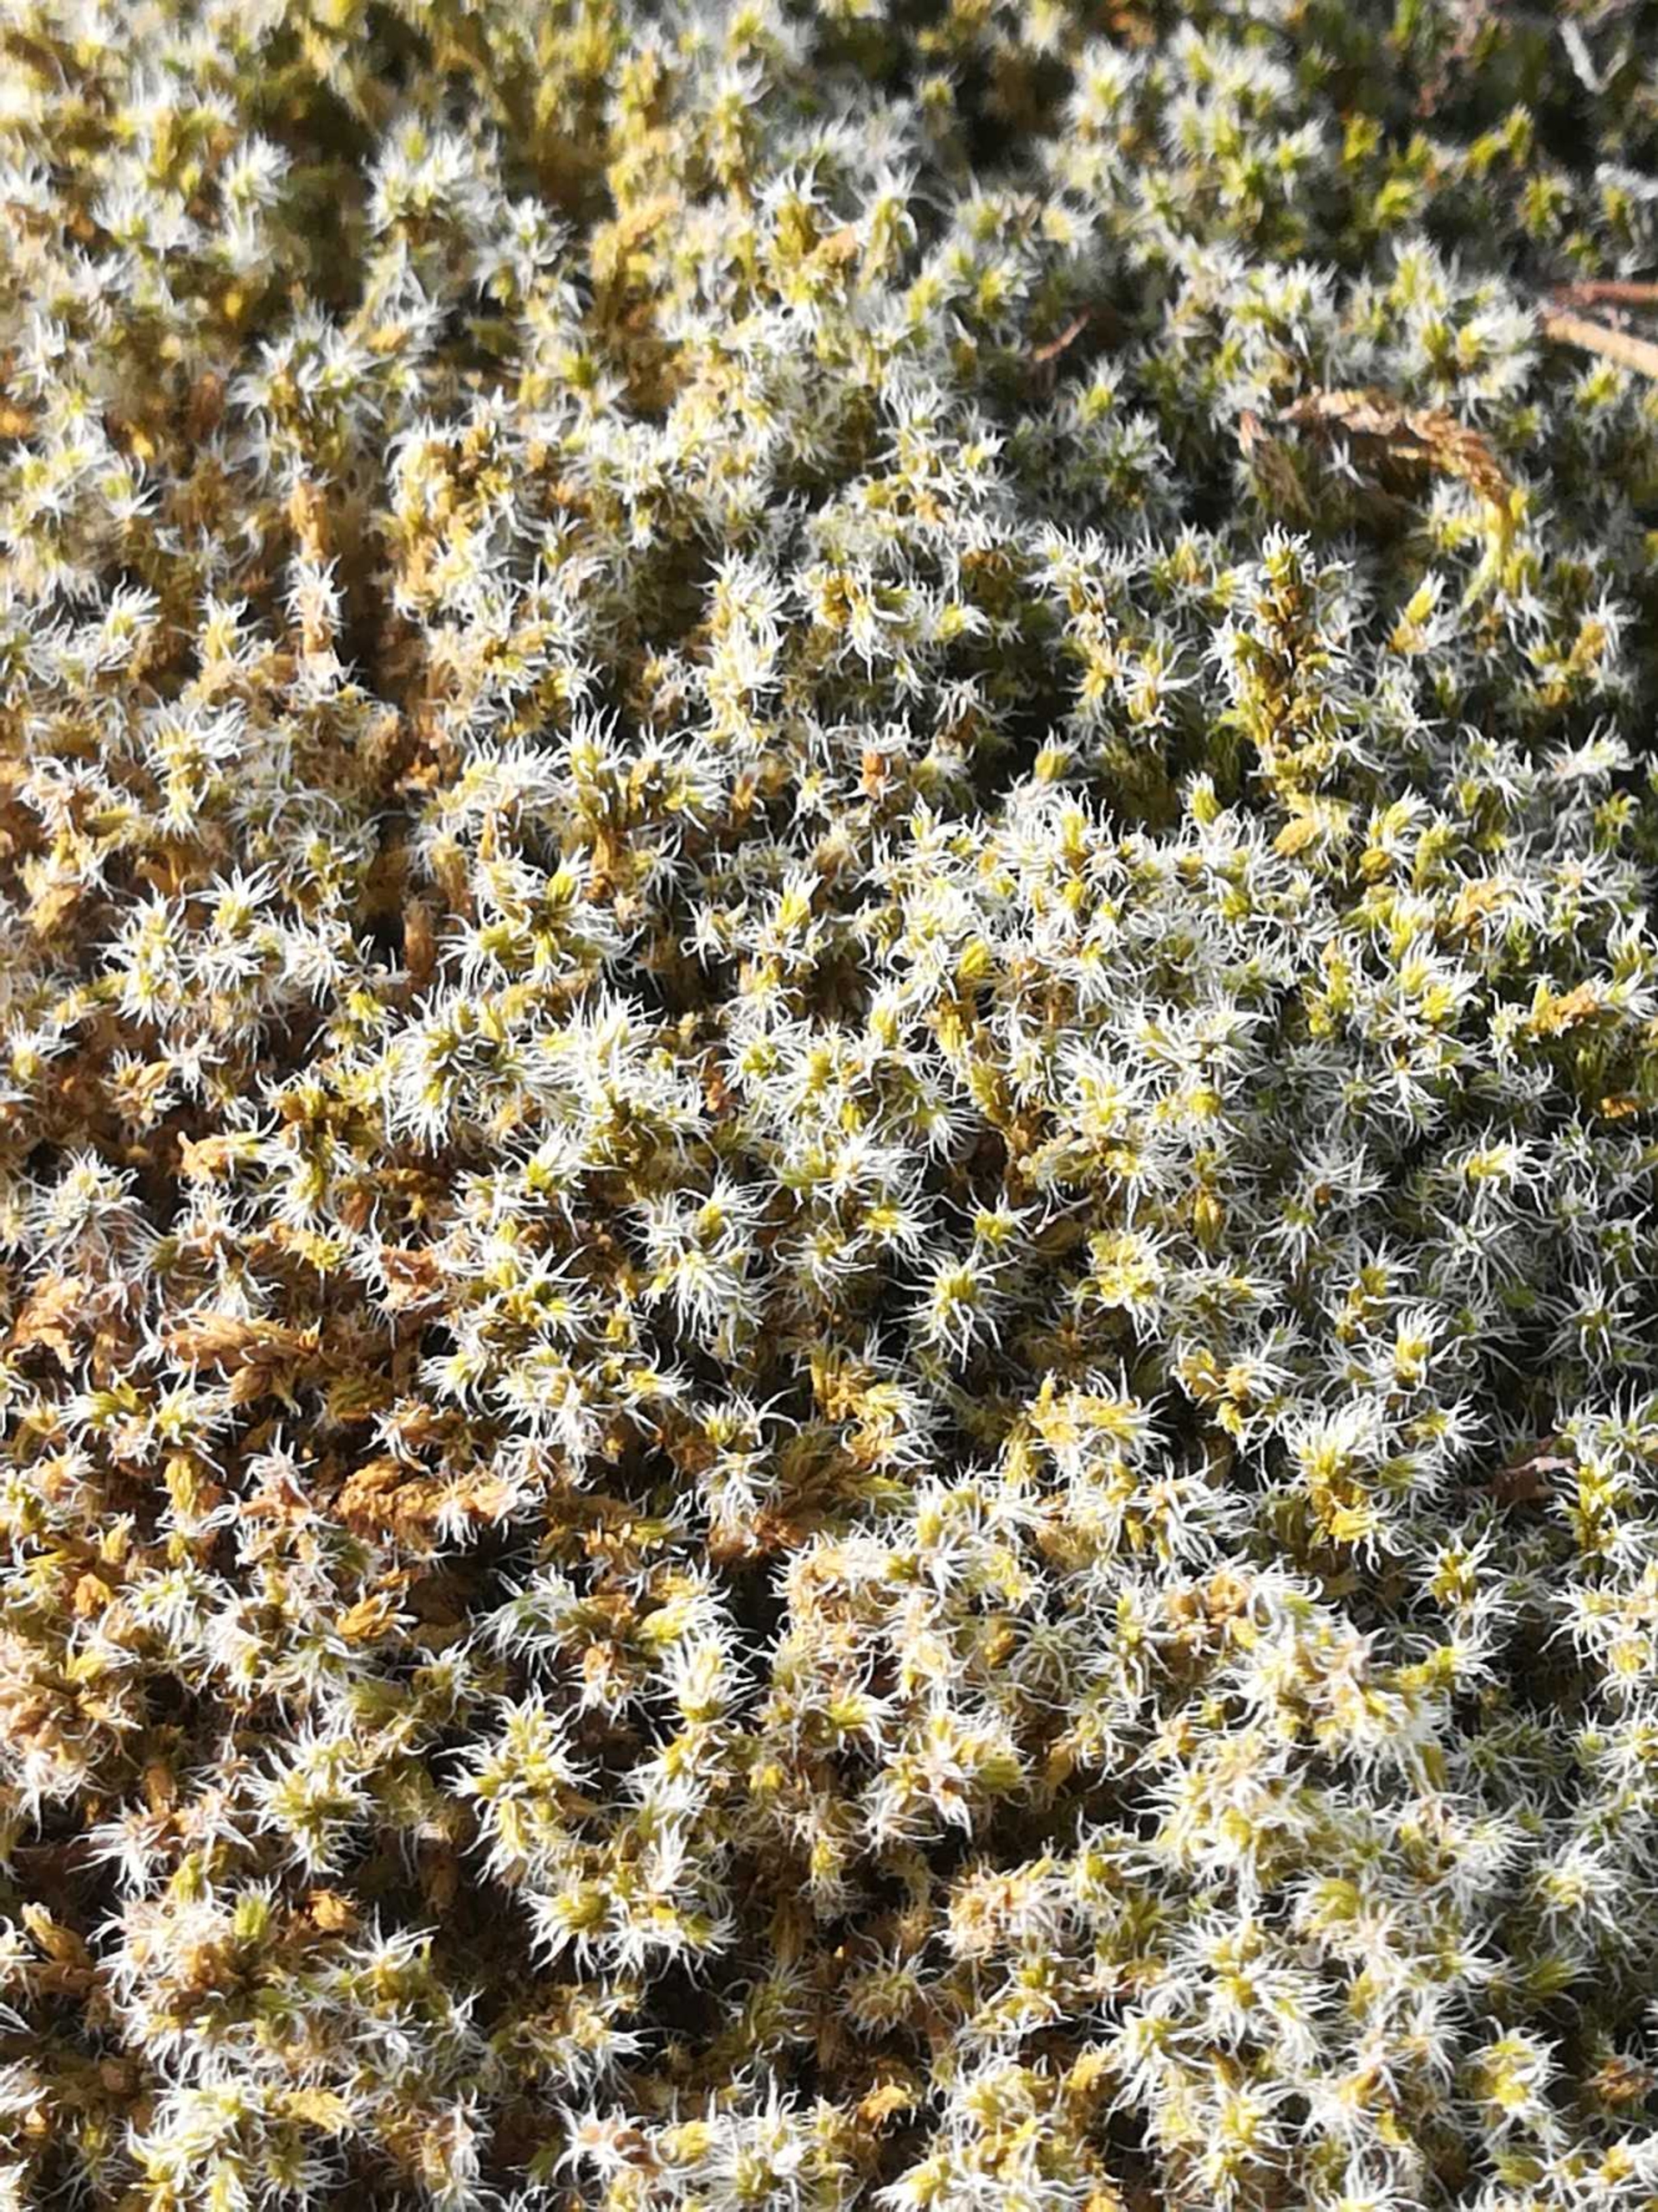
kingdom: Plantae
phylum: Bryophyta
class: Bryopsida
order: Grimmiales
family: Grimmiaceae
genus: Niphotrichum
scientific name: Niphotrichum elongatum
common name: Lang børstemos
